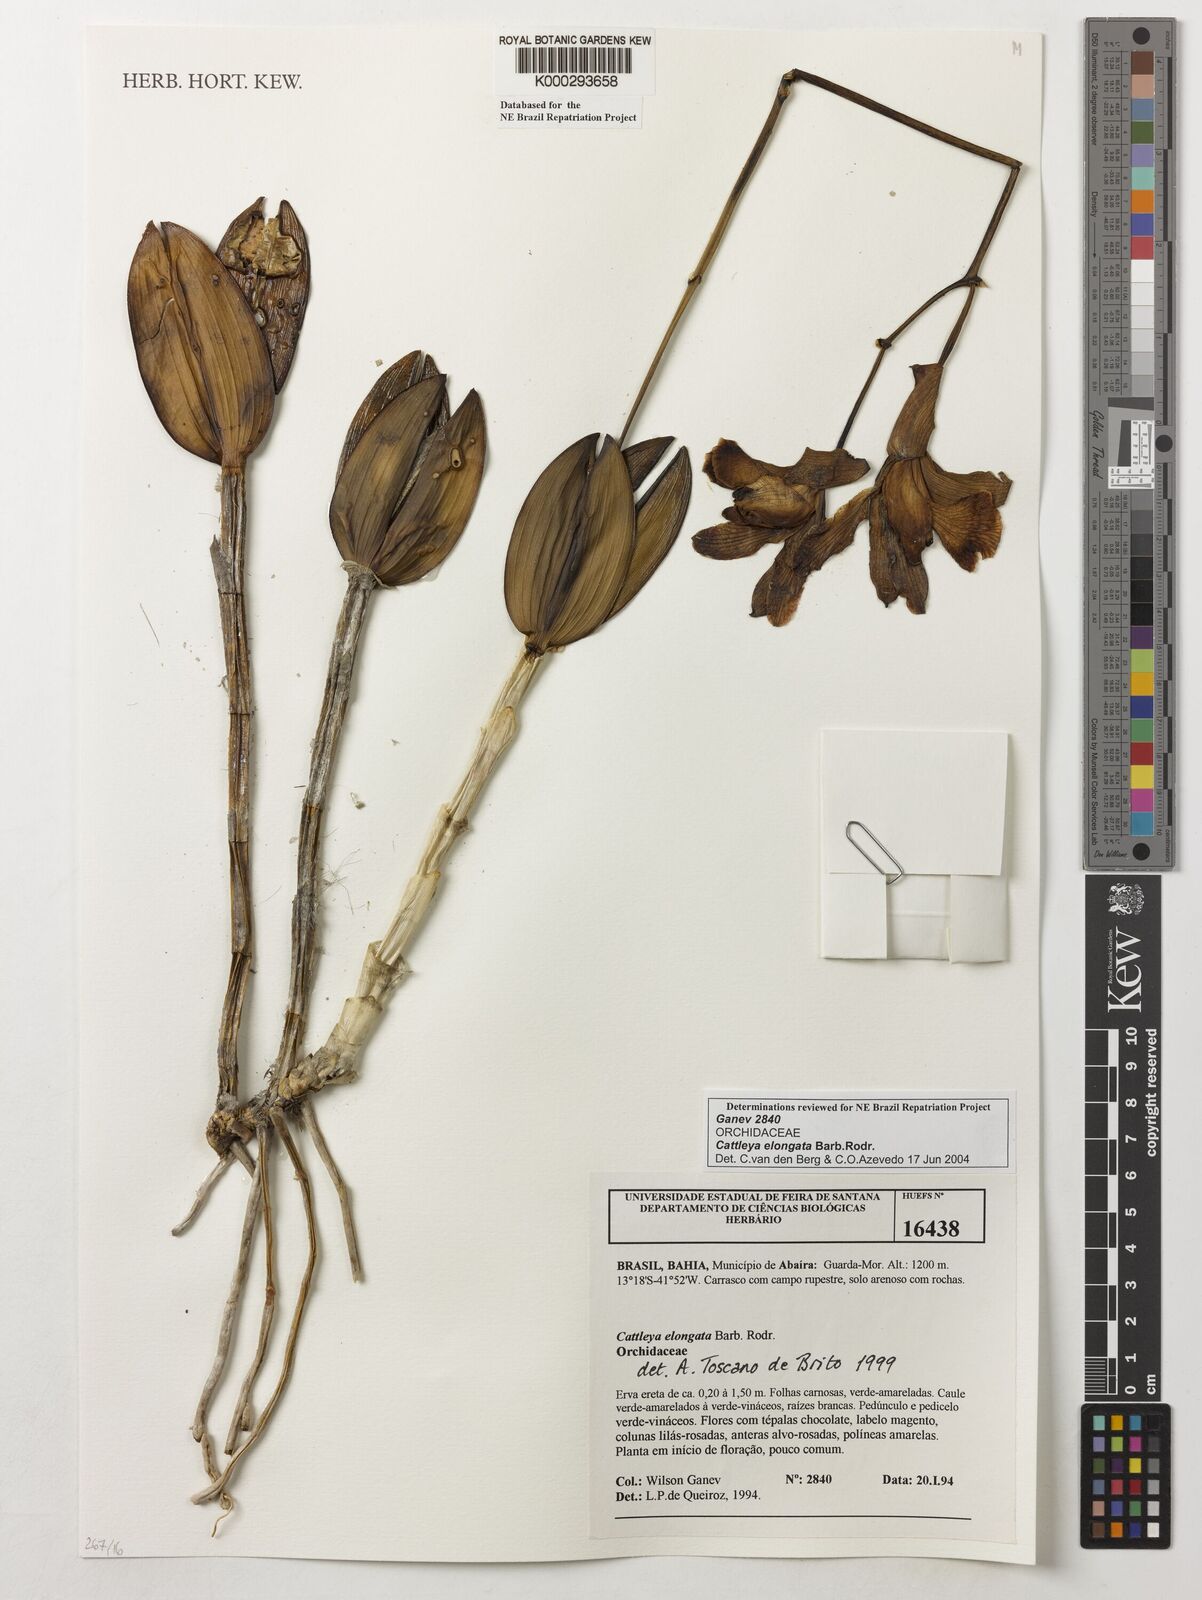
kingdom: Plantae
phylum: Tracheophyta
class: Liliopsida
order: Asparagales
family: Orchidaceae
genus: Cattleya
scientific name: Cattleya elongata
